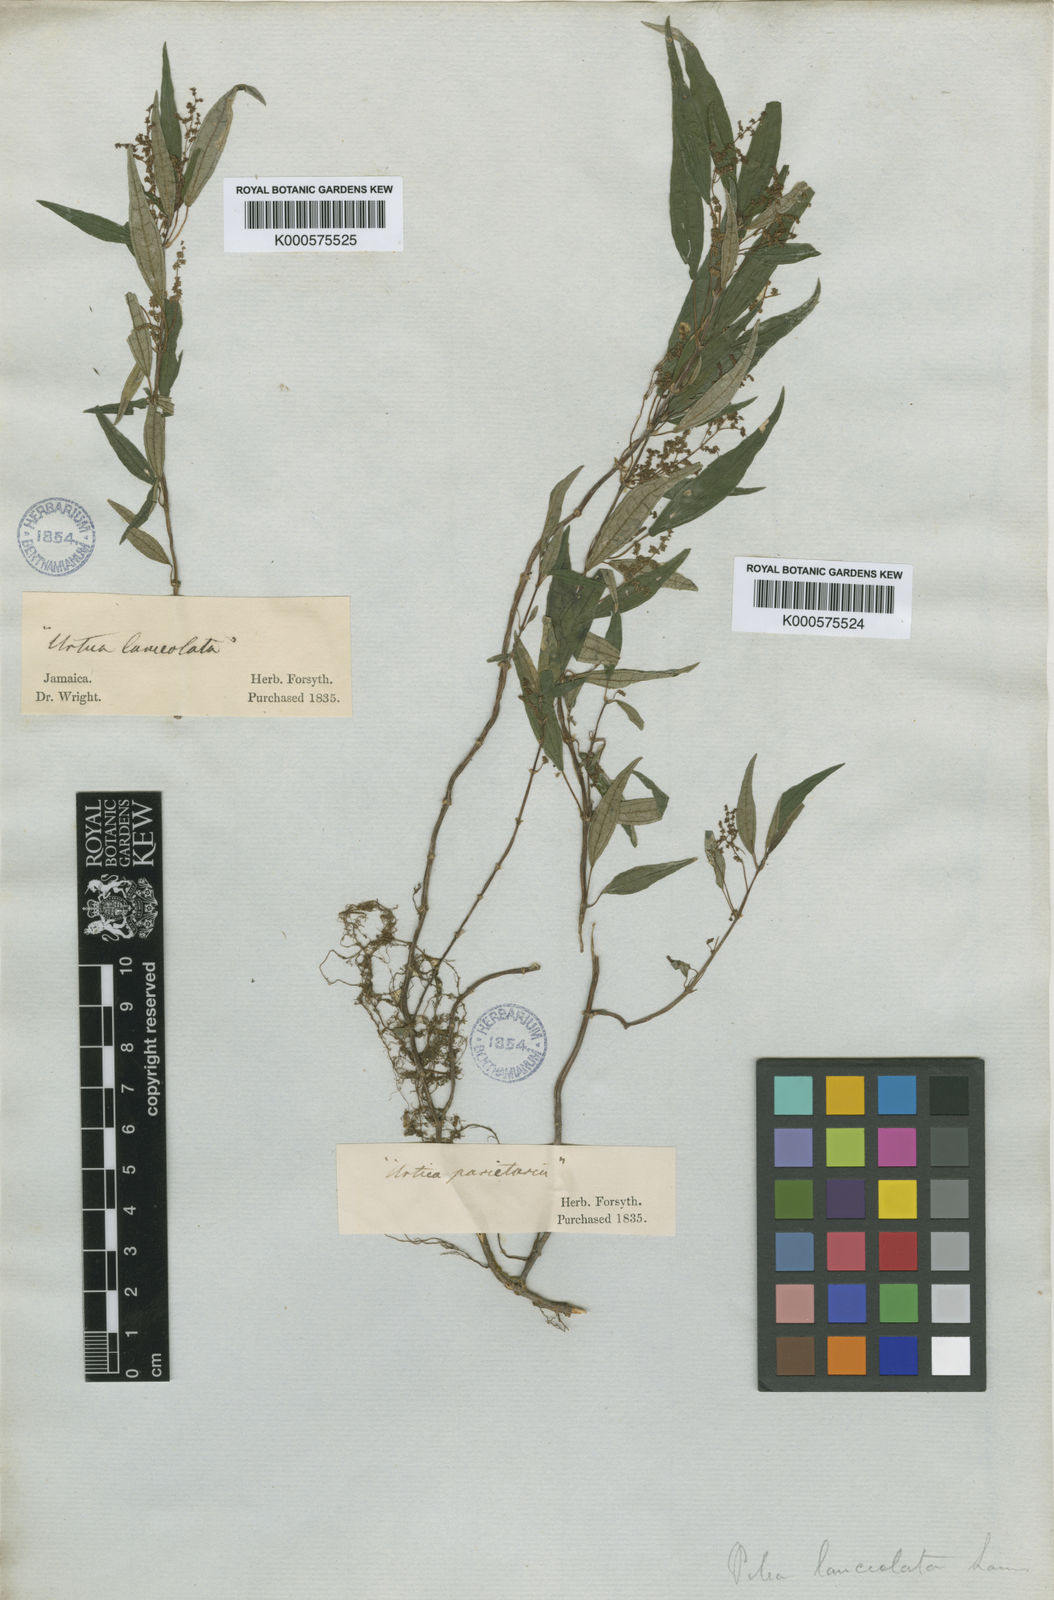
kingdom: Plantae
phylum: Tracheophyta
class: Magnoliopsida
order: Rosales
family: Urticaceae
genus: Pilea
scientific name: Pilea forsythiana
